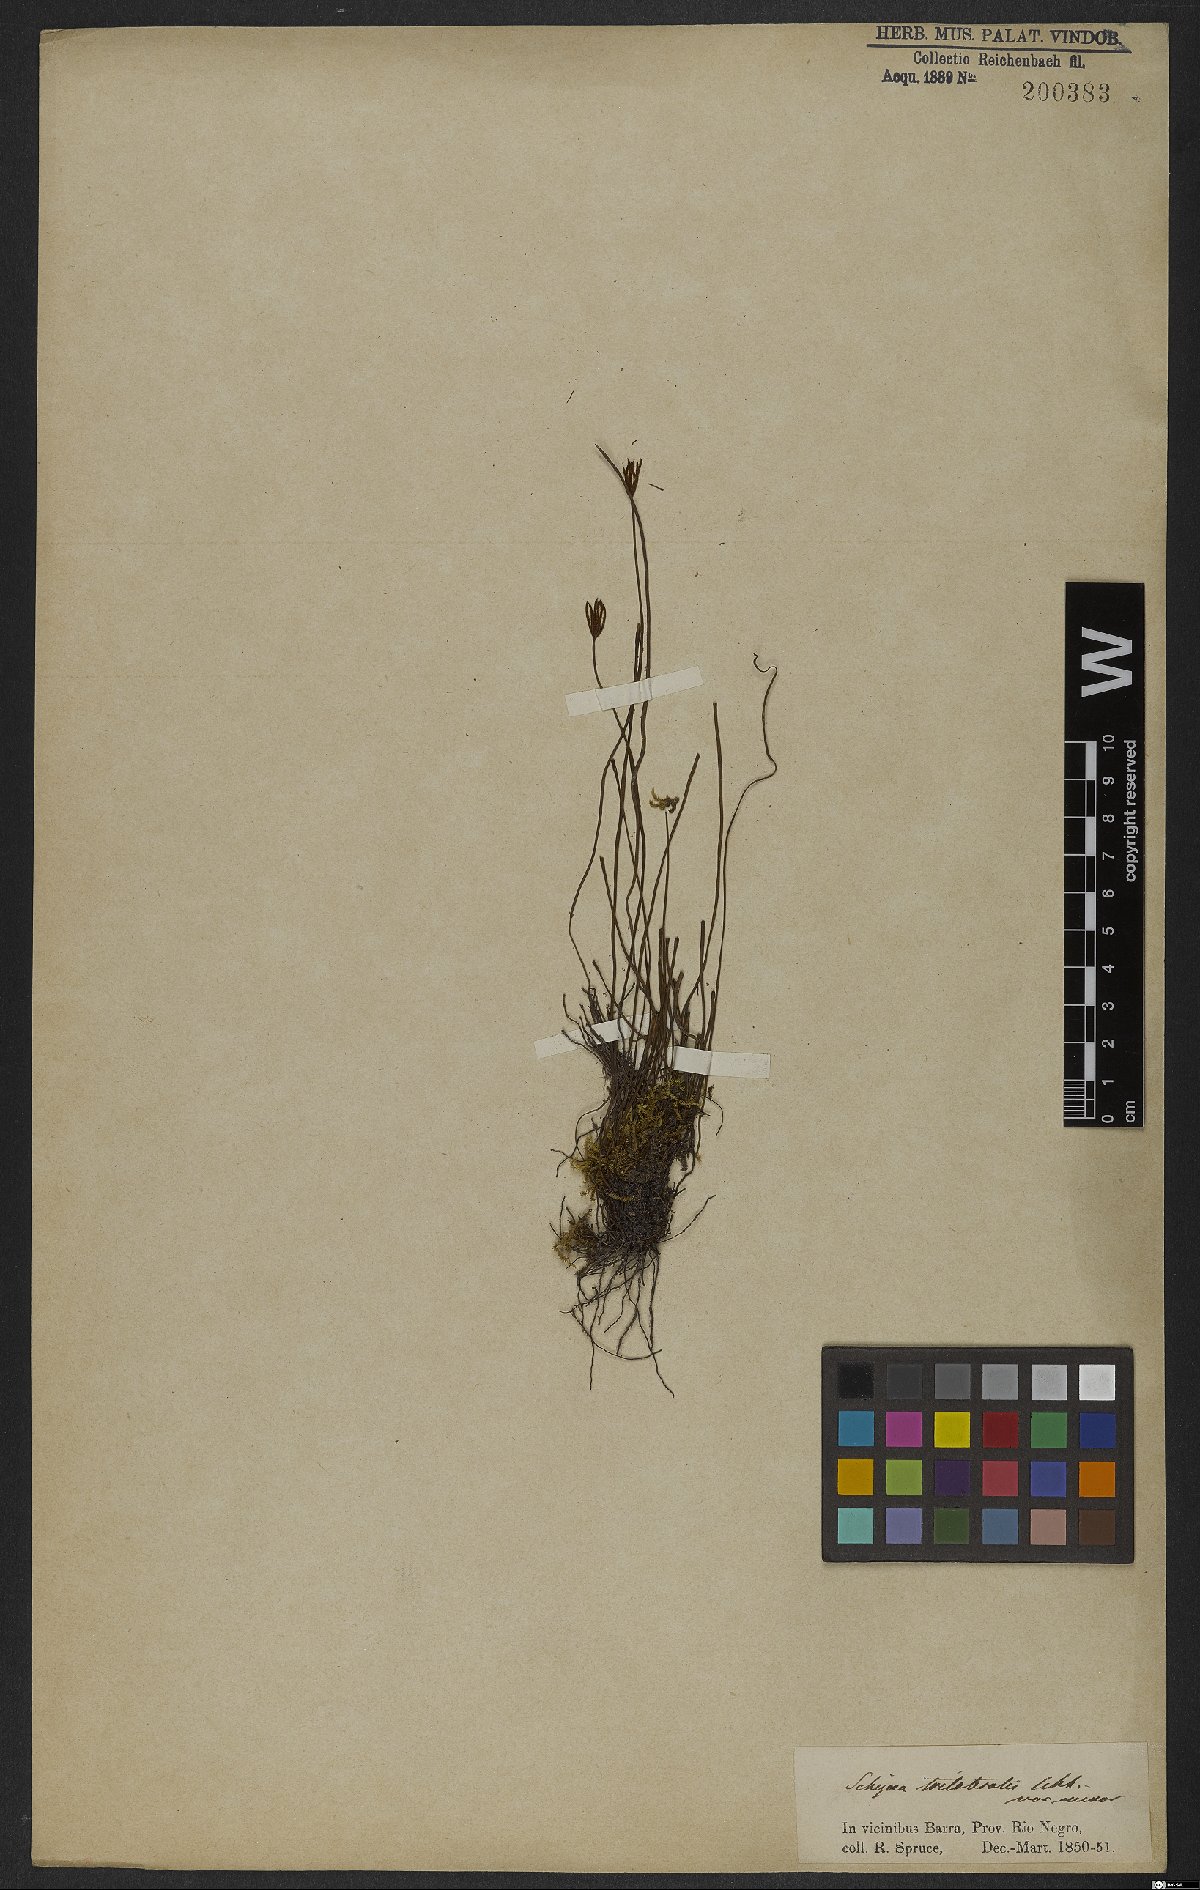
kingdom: Plantae
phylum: Tracheophyta
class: Polypodiopsida
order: Schizaeales
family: Schizaeaceae
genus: Actinostachys
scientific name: Actinostachys pennula
